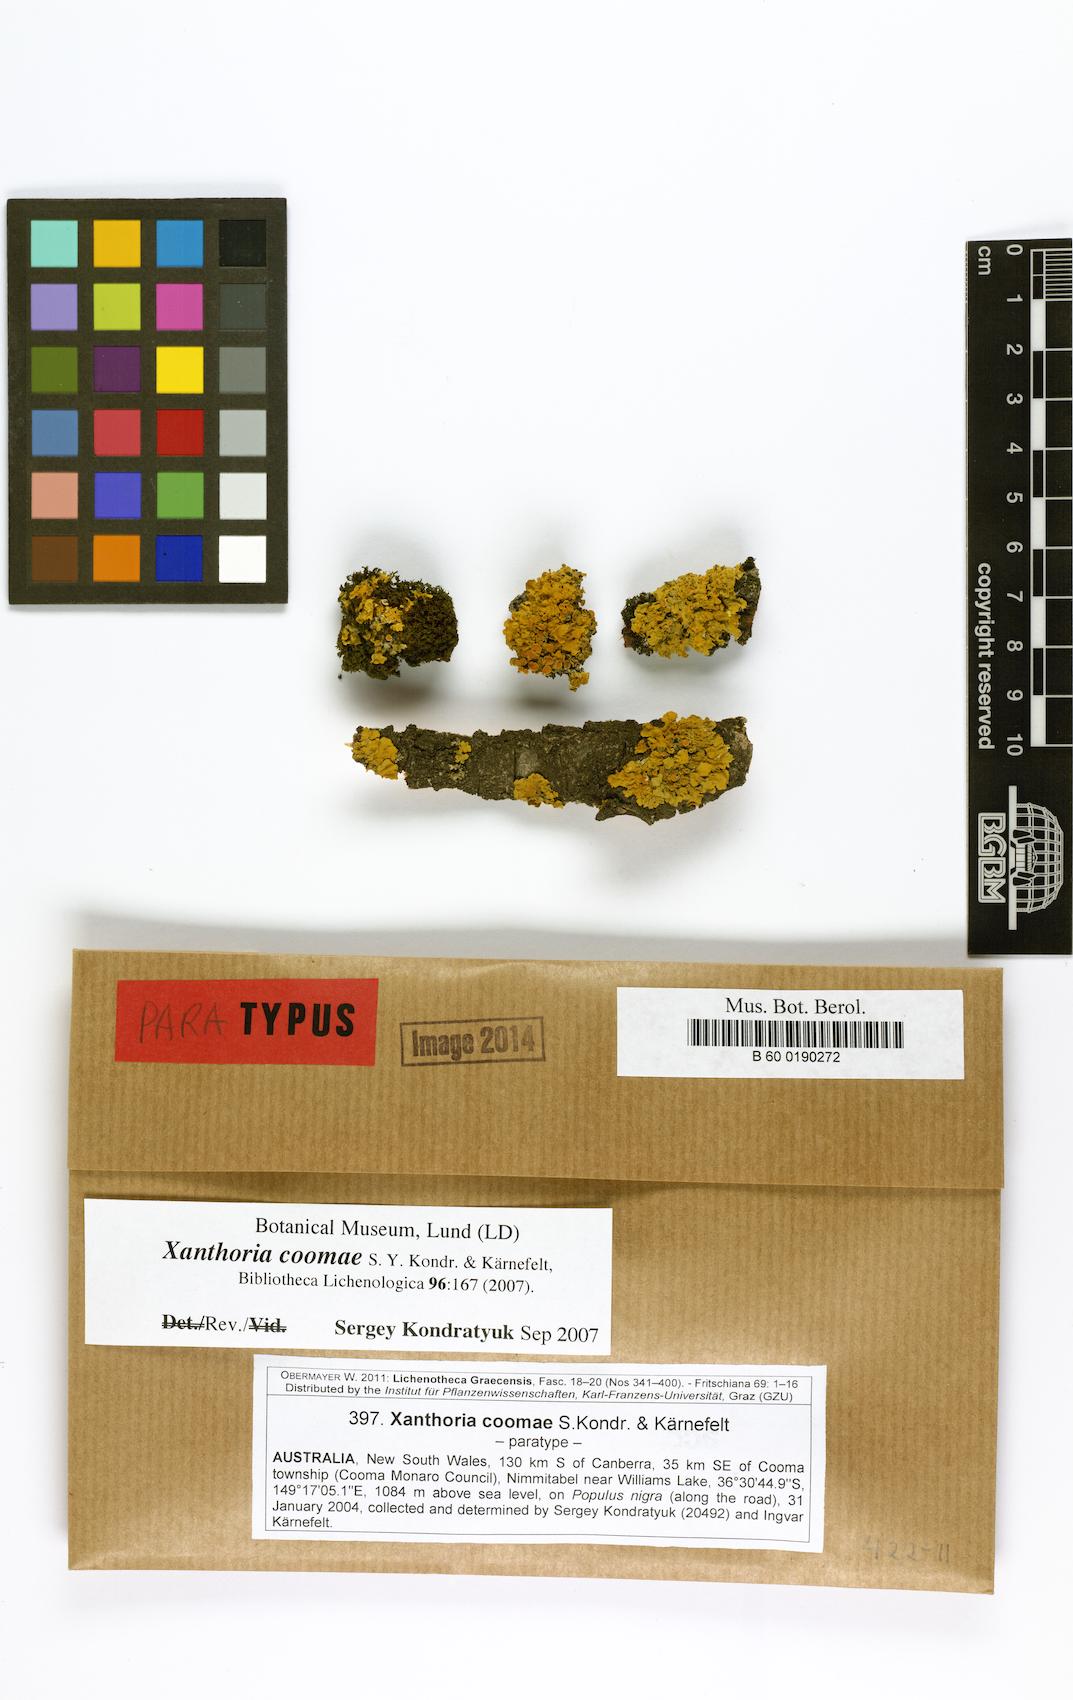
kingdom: Fungi
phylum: Ascomycota
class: Lecanoromycetes
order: Teloschistales
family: Teloschistaceae
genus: Xanthoria
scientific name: Xanthoria coomae
